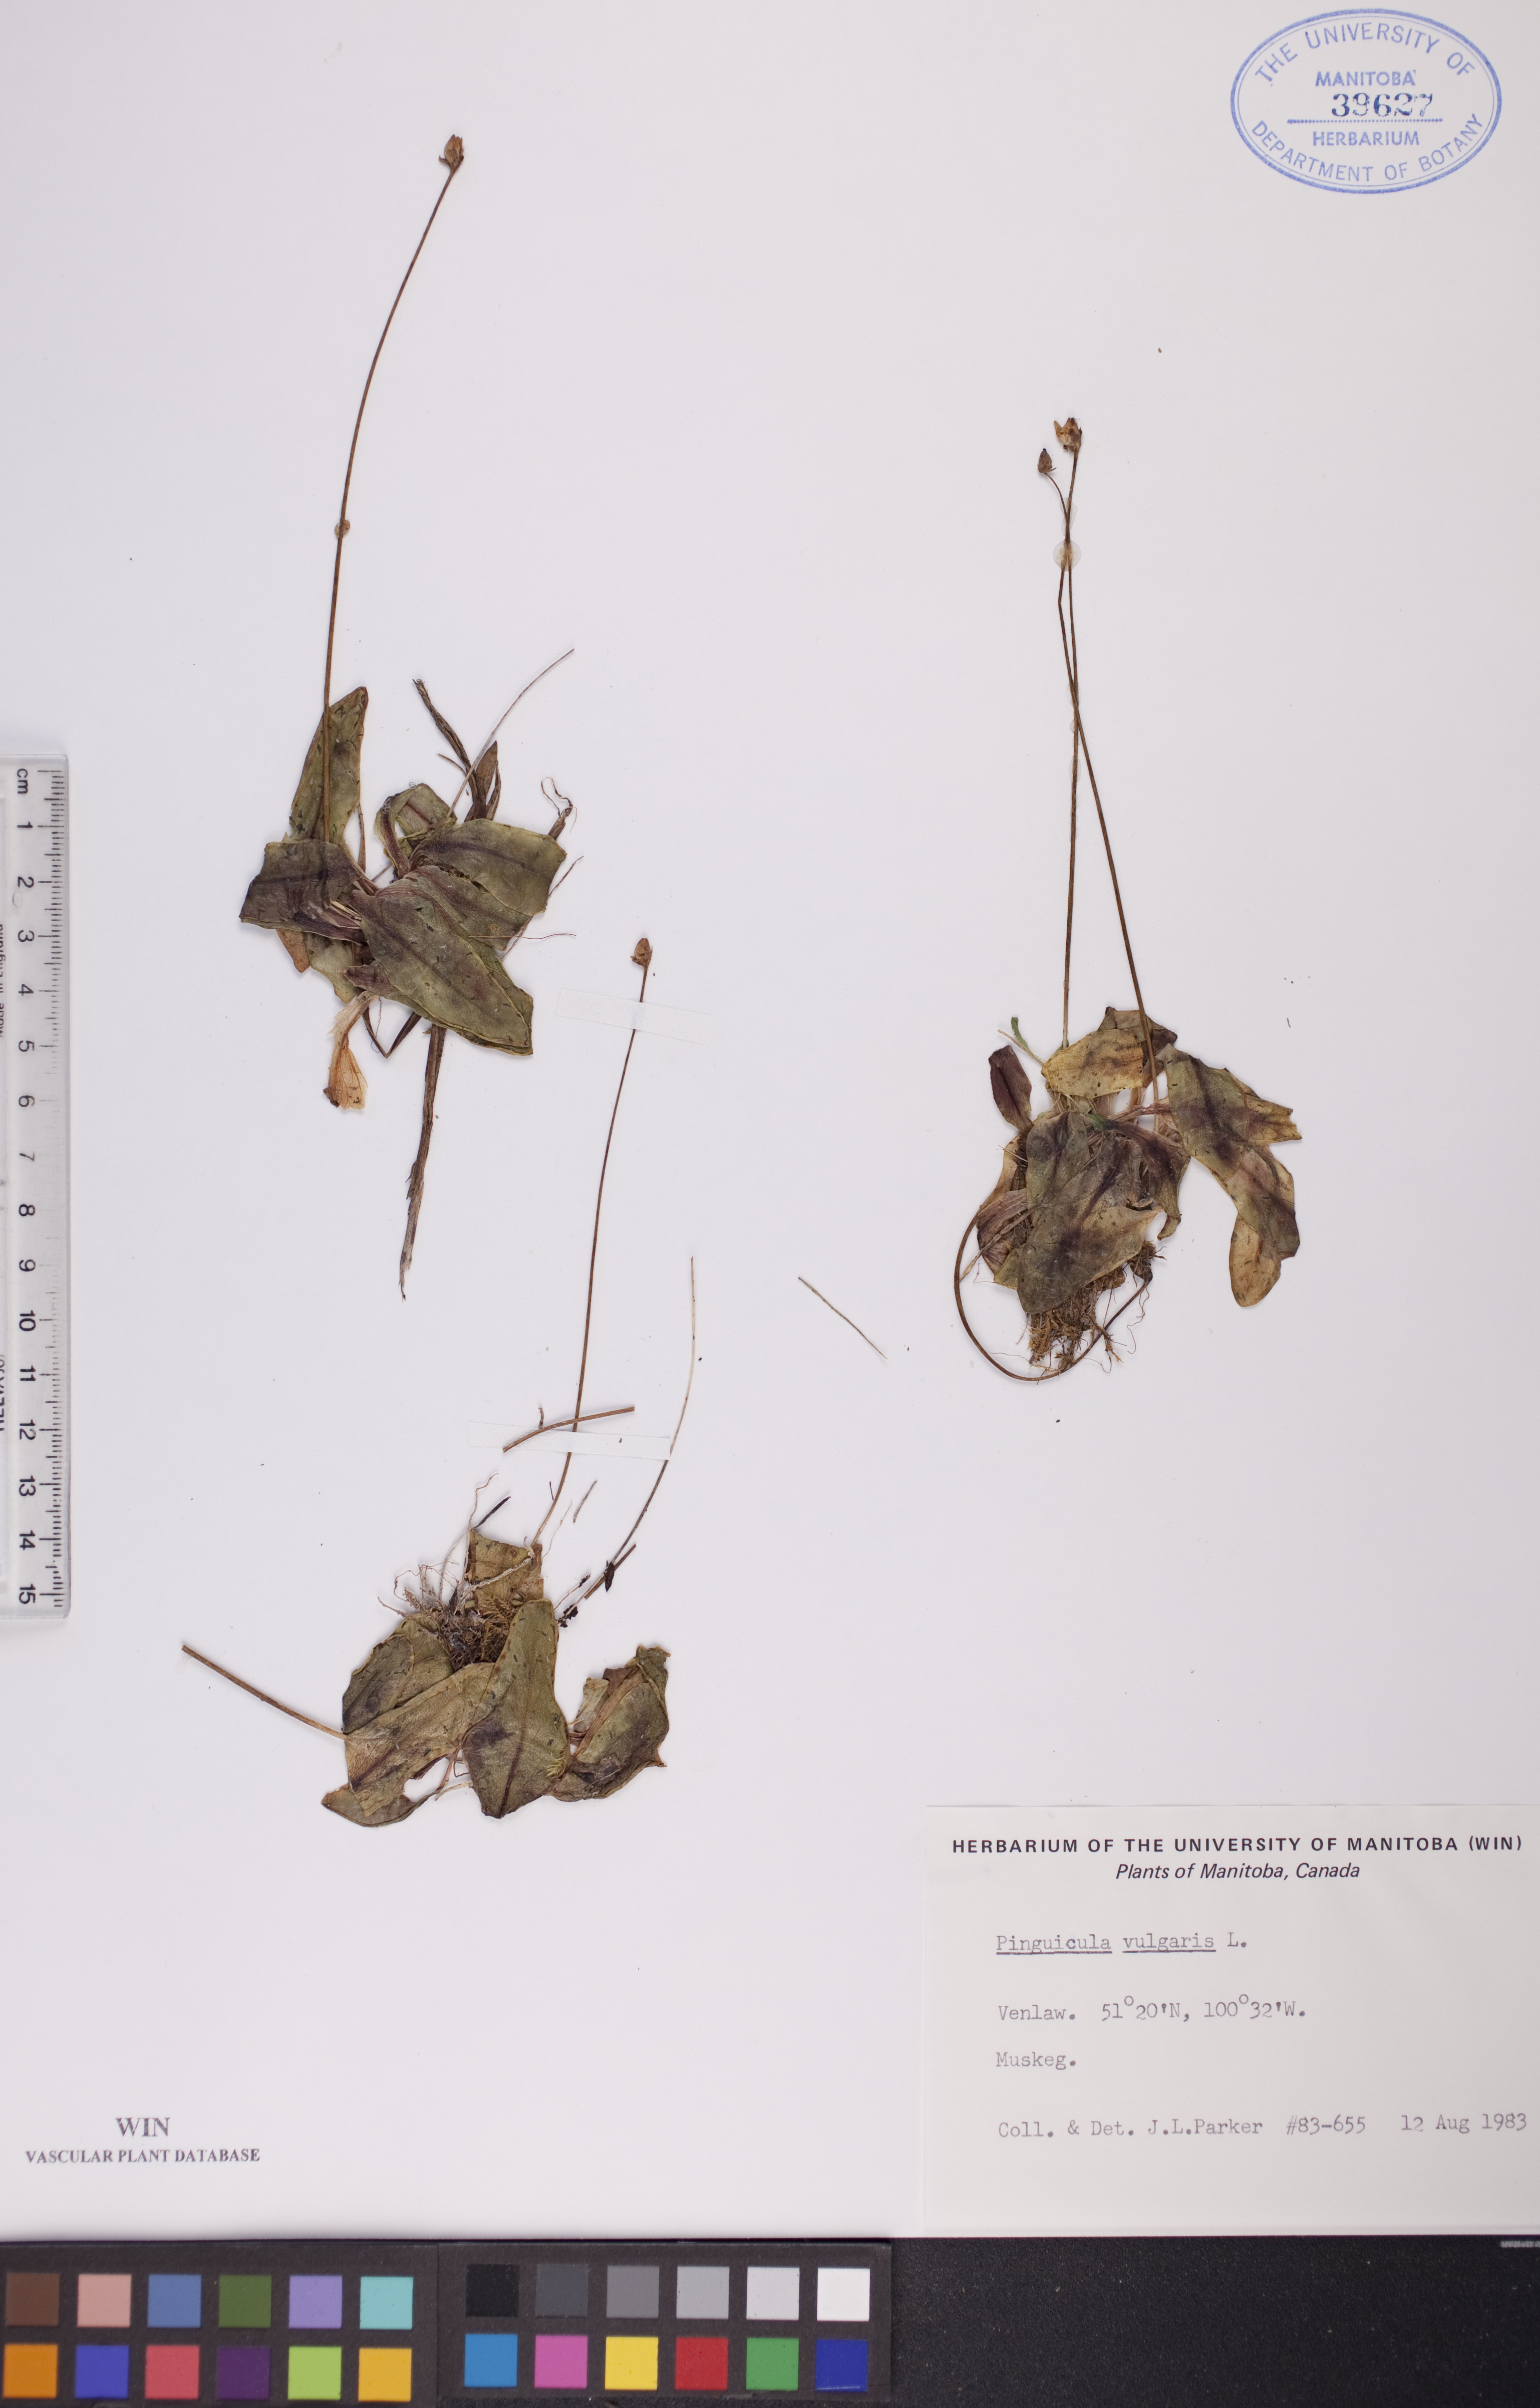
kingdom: Plantae
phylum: Tracheophyta
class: Magnoliopsida
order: Lamiales
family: Lentibulariaceae
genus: Pinguicula
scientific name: Pinguicula vulgaris
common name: Common butterwort
